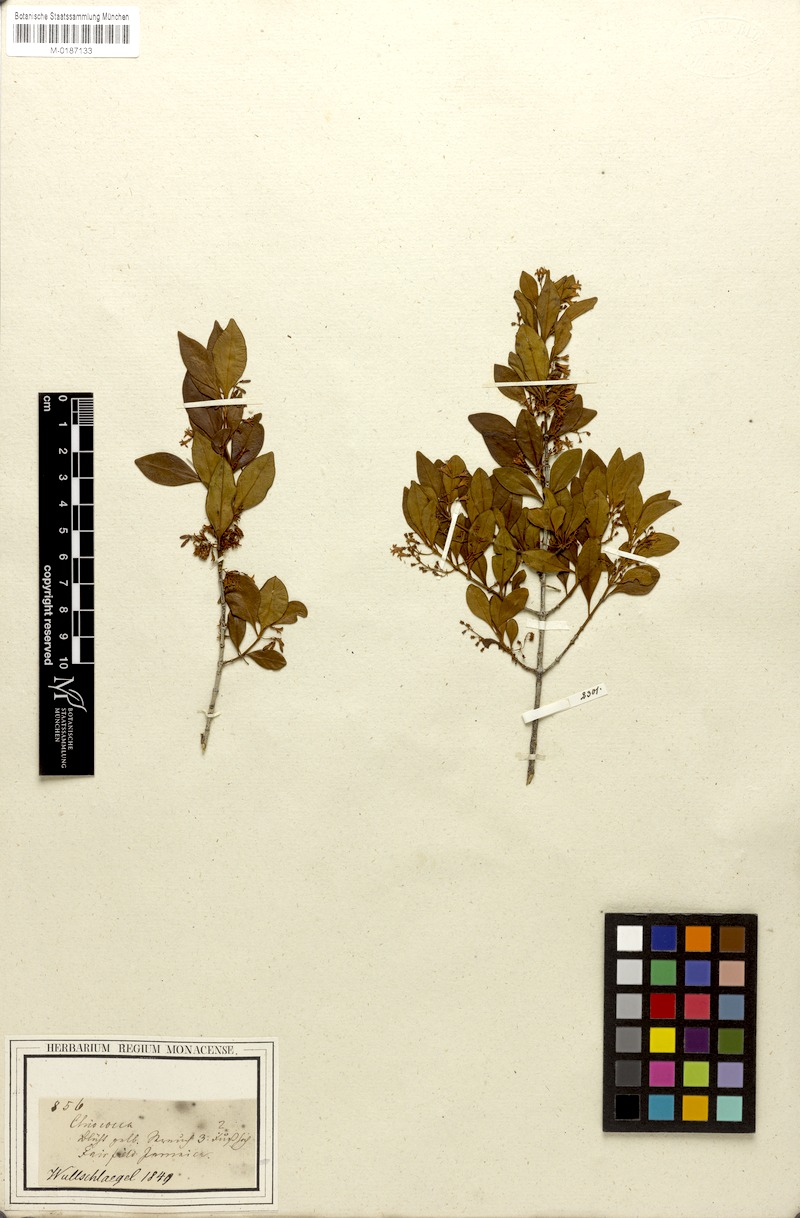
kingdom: Plantae
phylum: Tracheophyta
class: Magnoliopsida
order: Gentianales
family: Rubiaceae
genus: Chiococca
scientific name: Chiococca alba
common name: Snowberry
